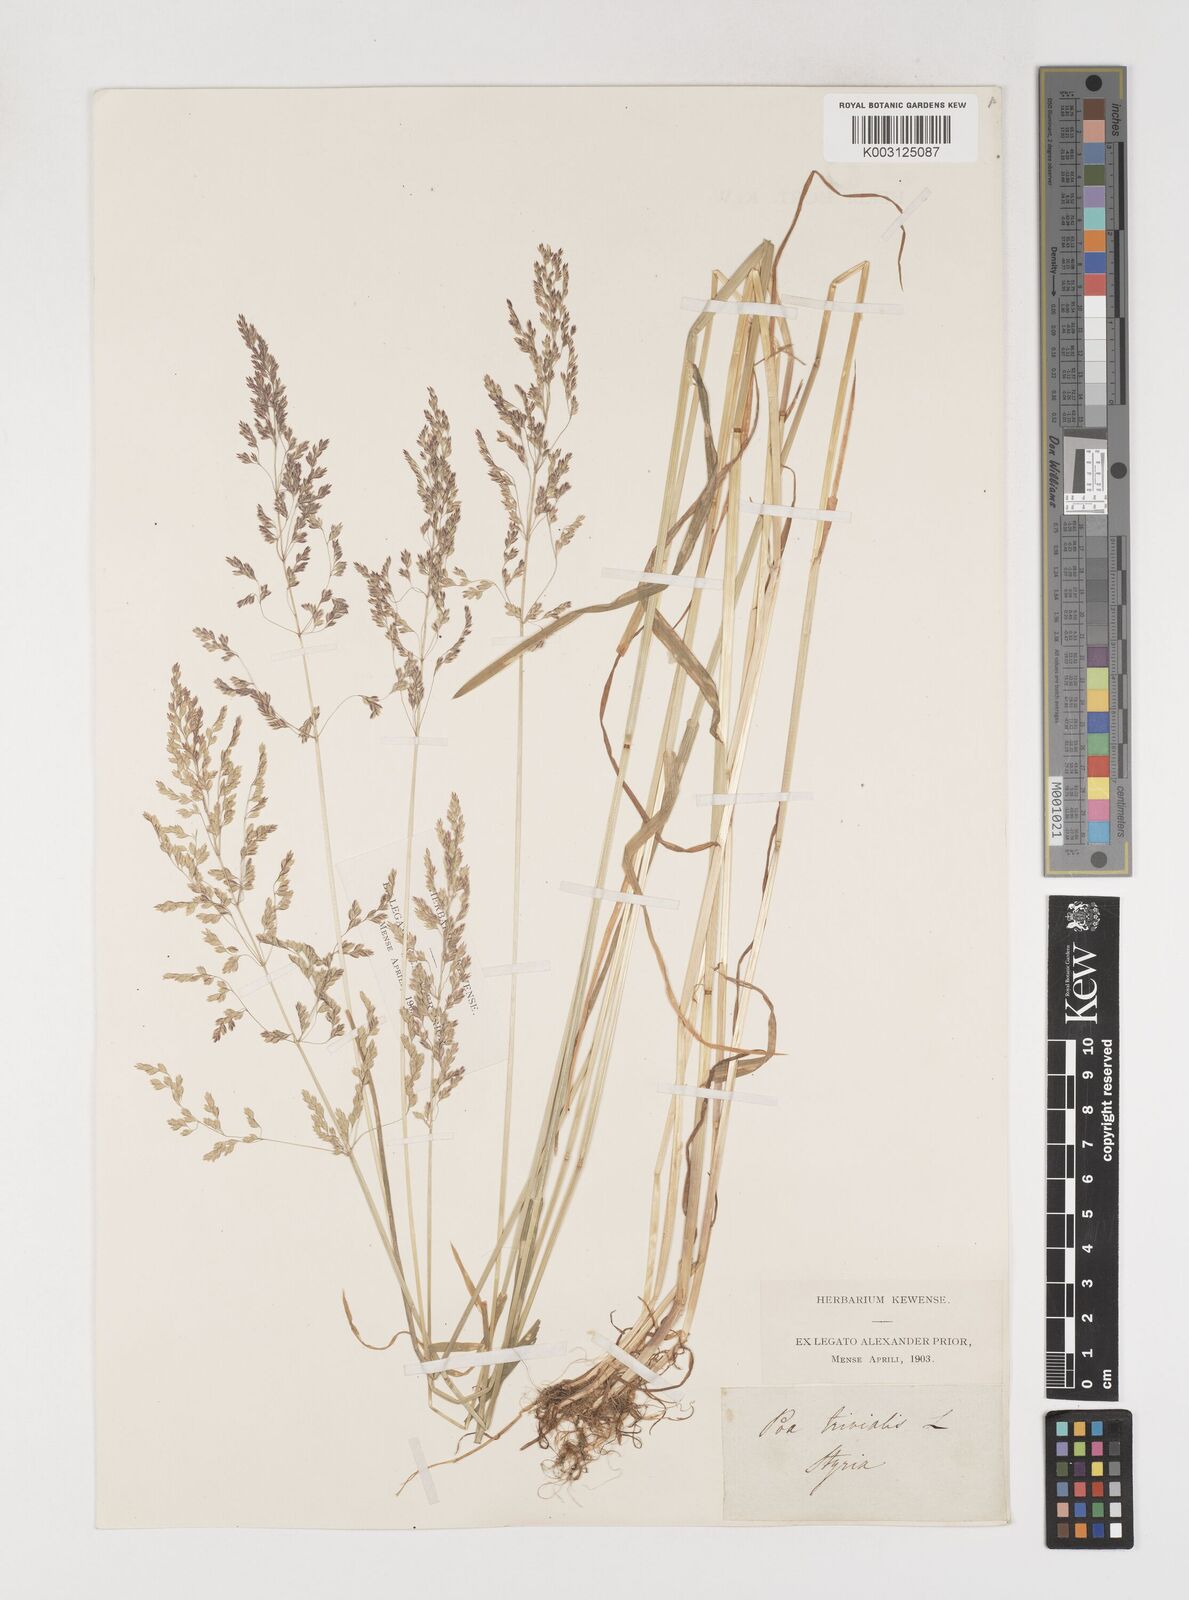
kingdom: Plantae
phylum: Tracheophyta
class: Liliopsida
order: Poales
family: Poaceae
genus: Poa
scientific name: Poa trivialis
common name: Rough bluegrass
